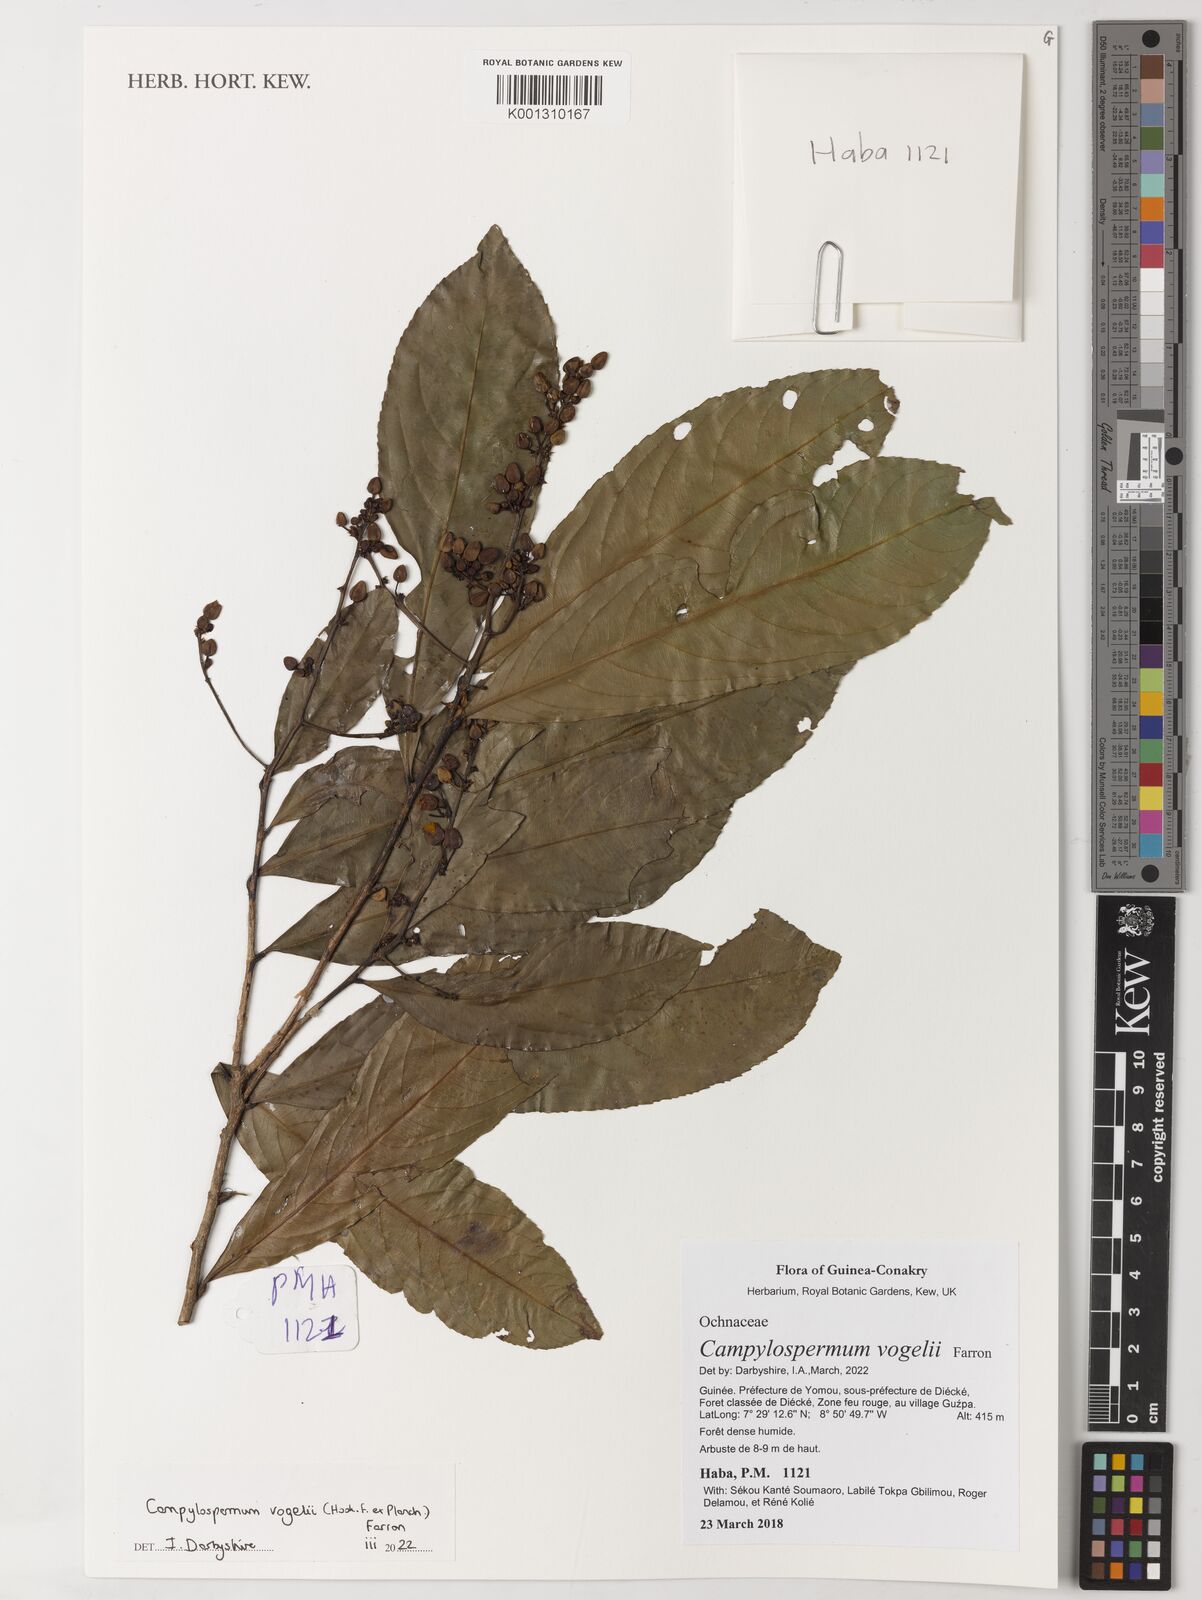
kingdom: Plantae
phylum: Tracheophyta
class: Magnoliopsida
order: Malpighiales
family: Ochnaceae
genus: Campylospermum
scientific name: Campylospermum vogelii
